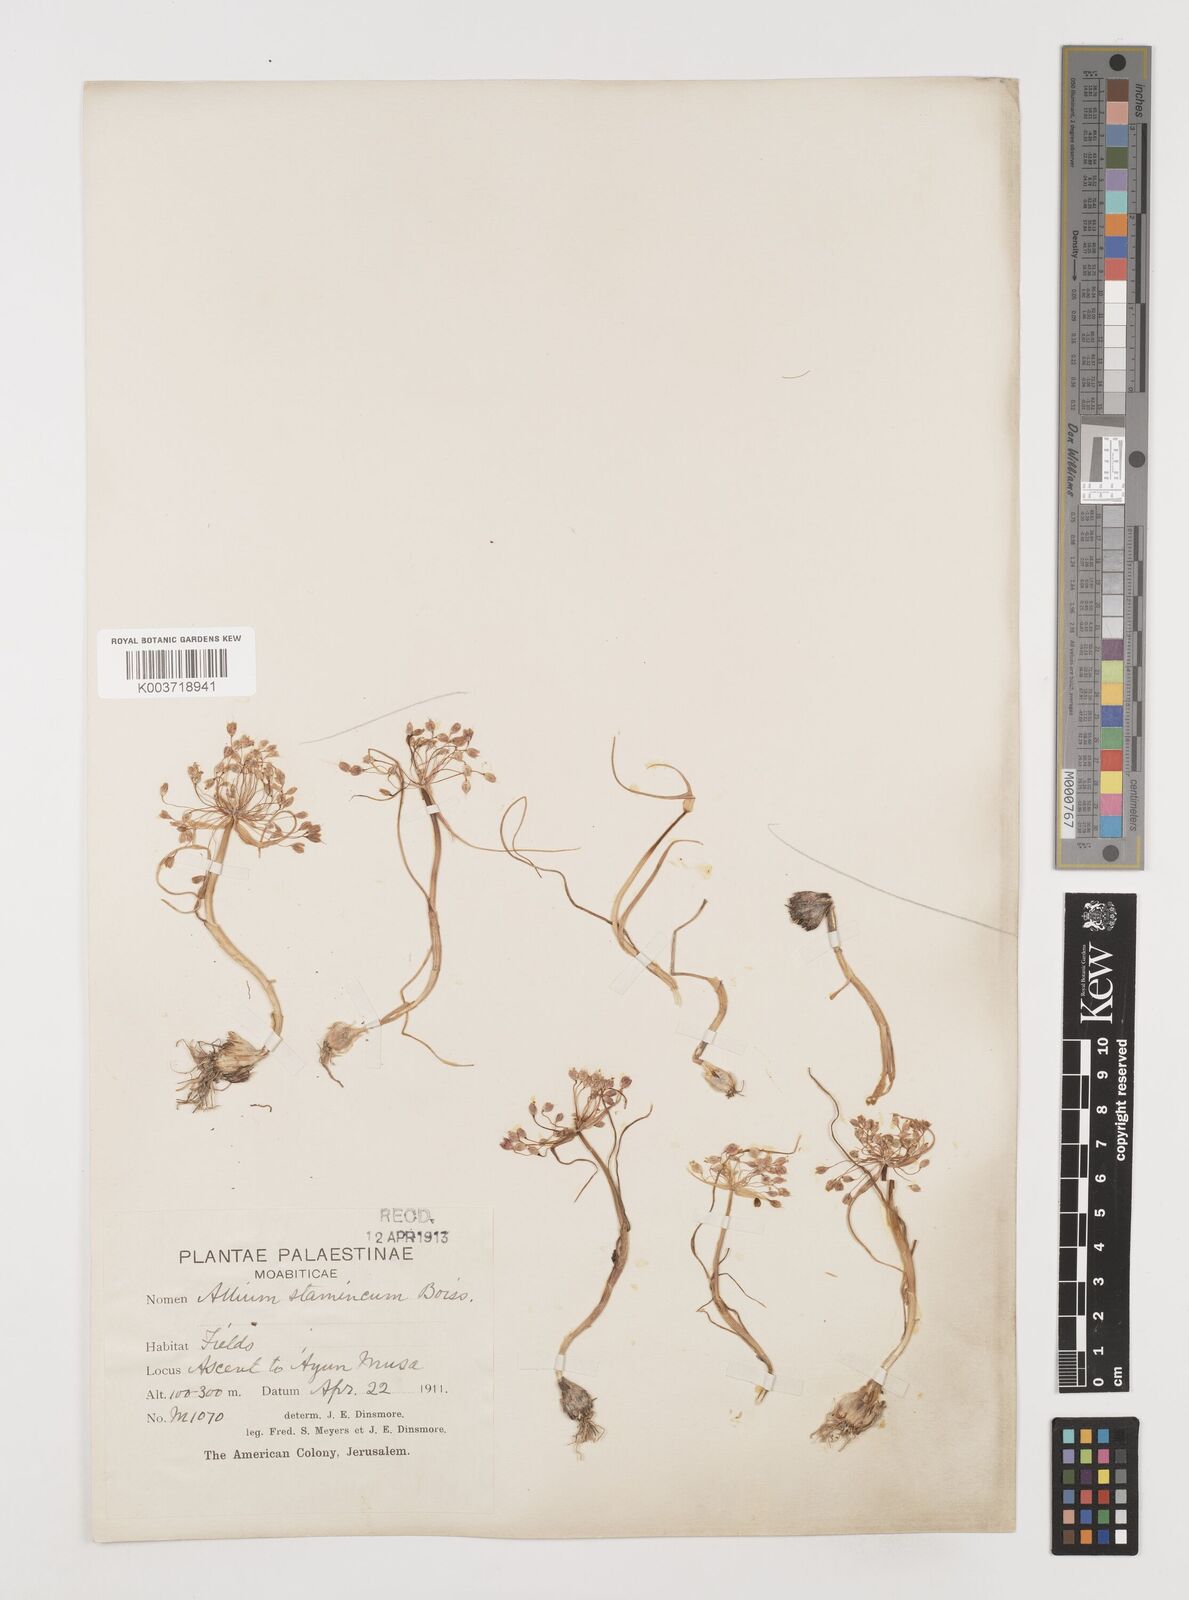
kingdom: Plantae
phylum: Tracheophyta
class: Liliopsida
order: Asparagales
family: Amaryllidaceae
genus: Allium
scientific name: Allium stamineum
